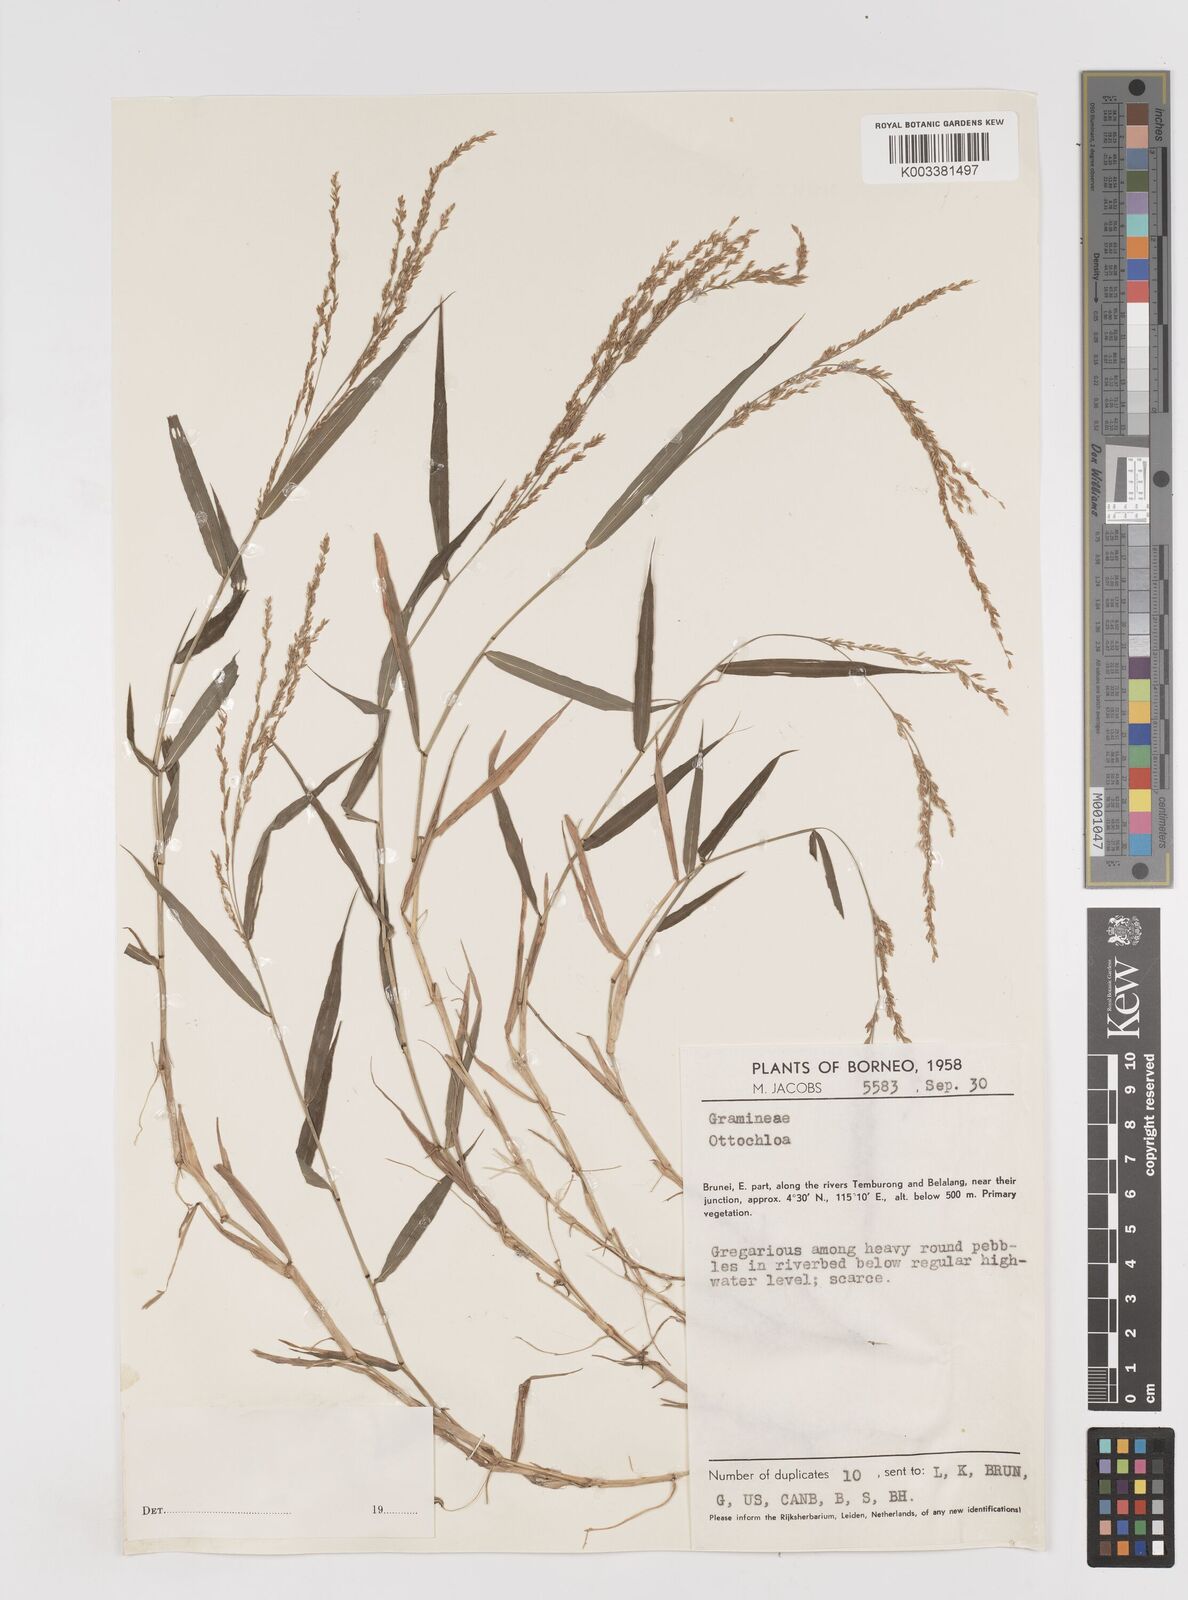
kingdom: Plantae
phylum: Tracheophyta
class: Liliopsida
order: Poales
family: Poaceae
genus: Ottochloa
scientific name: Ottochloa nodosa
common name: Slender-panic grass
